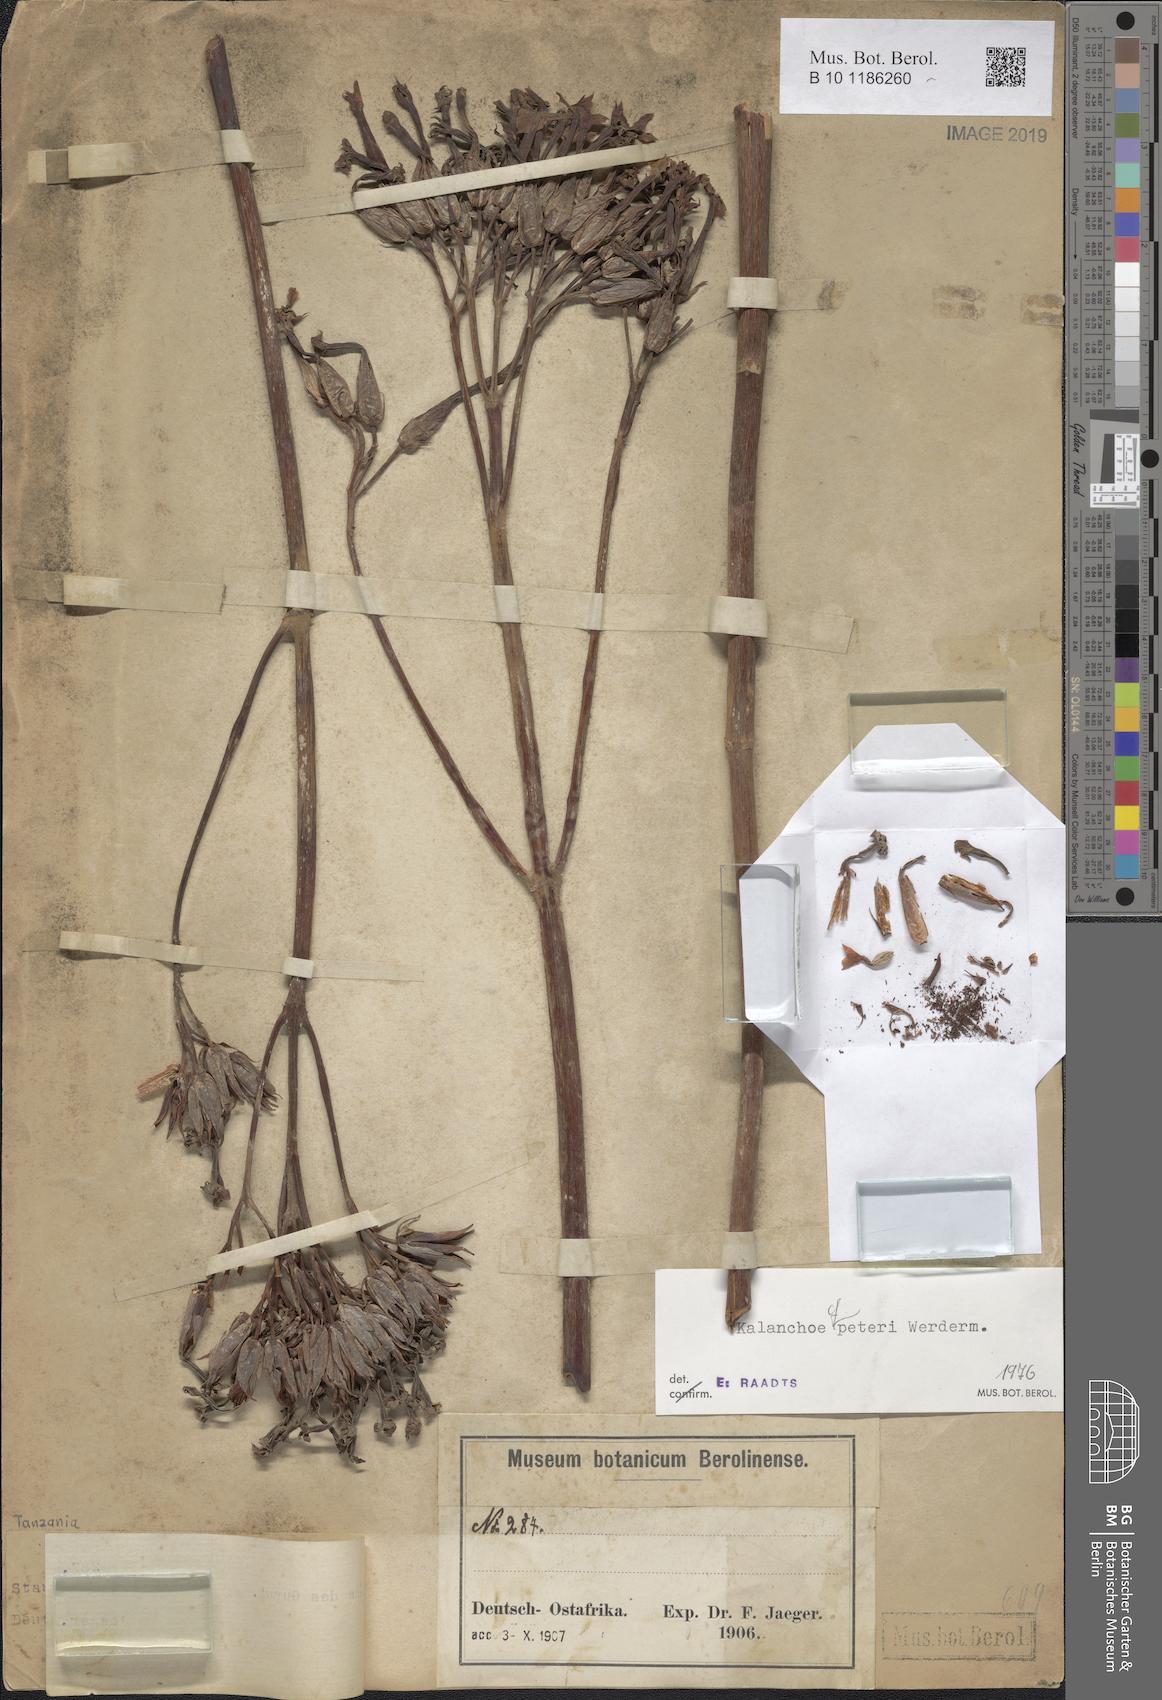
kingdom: Plantae
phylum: Tracheophyta
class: Magnoliopsida
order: Saxifragales
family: Crassulaceae
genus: Kalanchoe
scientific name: Kalanchoe peteri
